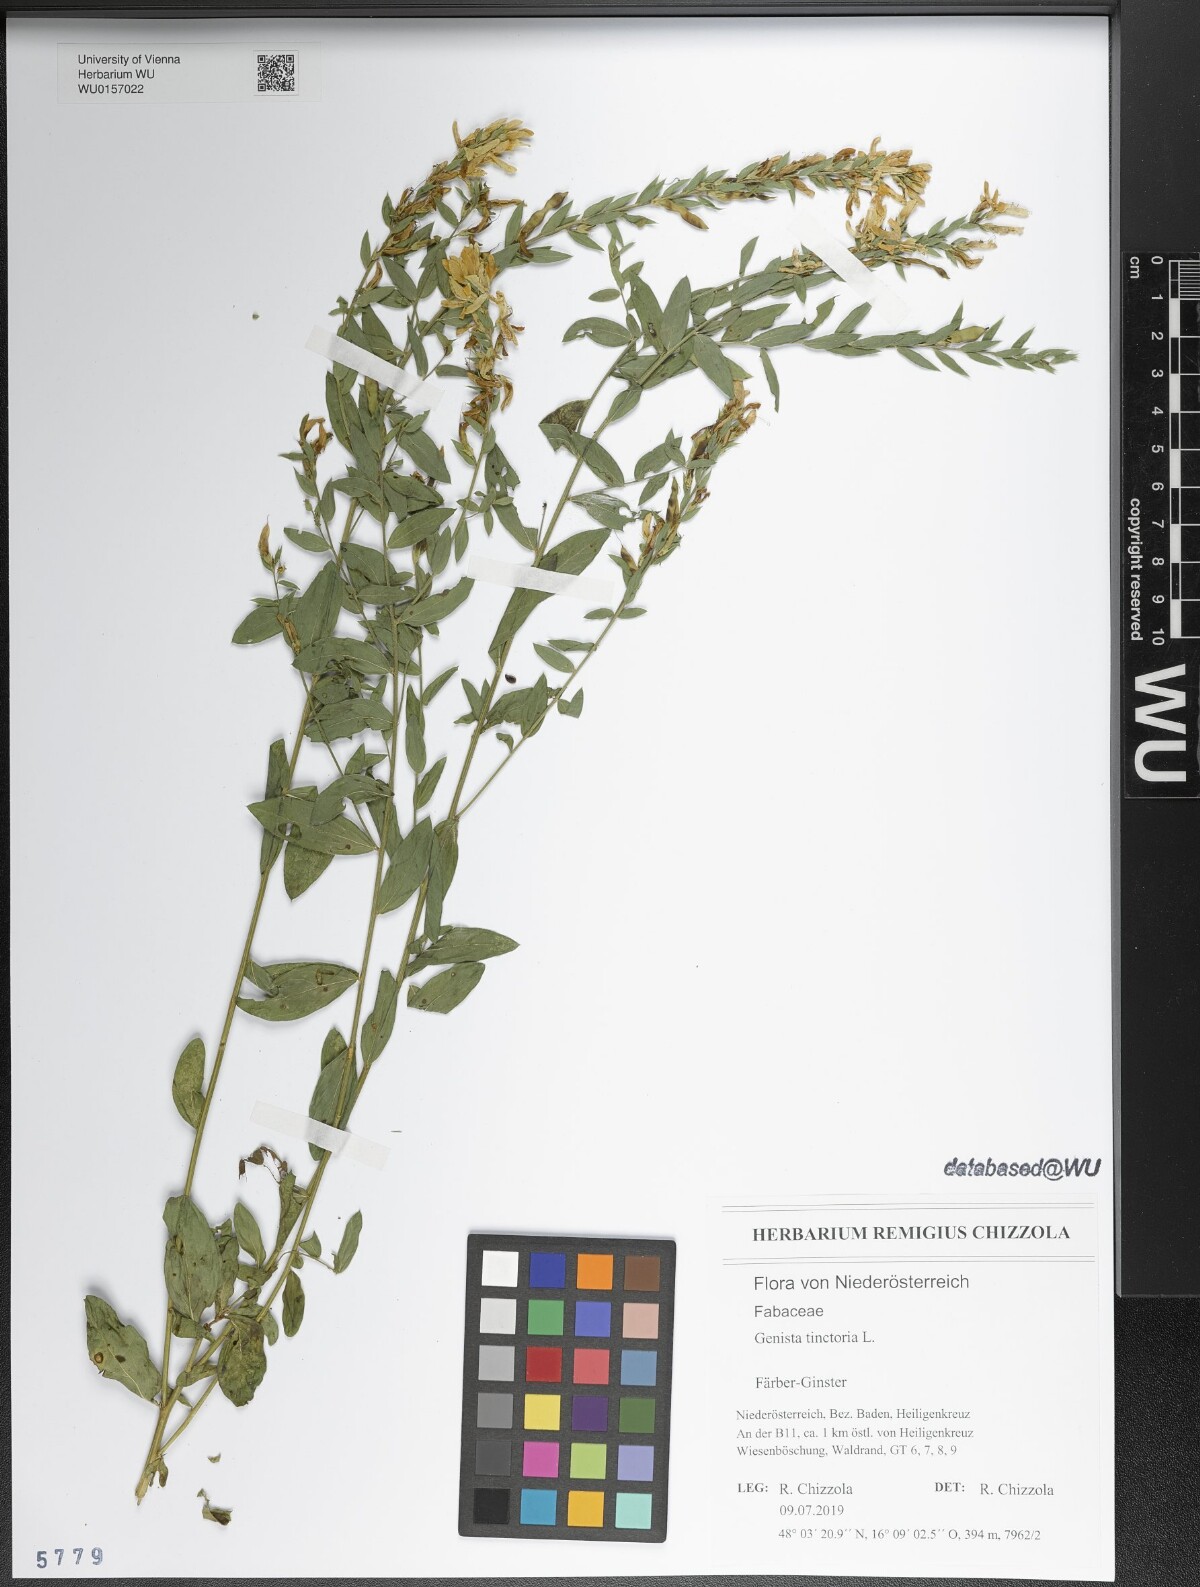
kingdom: Plantae
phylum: Tracheophyta
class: Magnoliopsida
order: Fabales
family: Fabaceae
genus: Genista
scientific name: Genista tinctoria
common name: Dyer's greenweed
